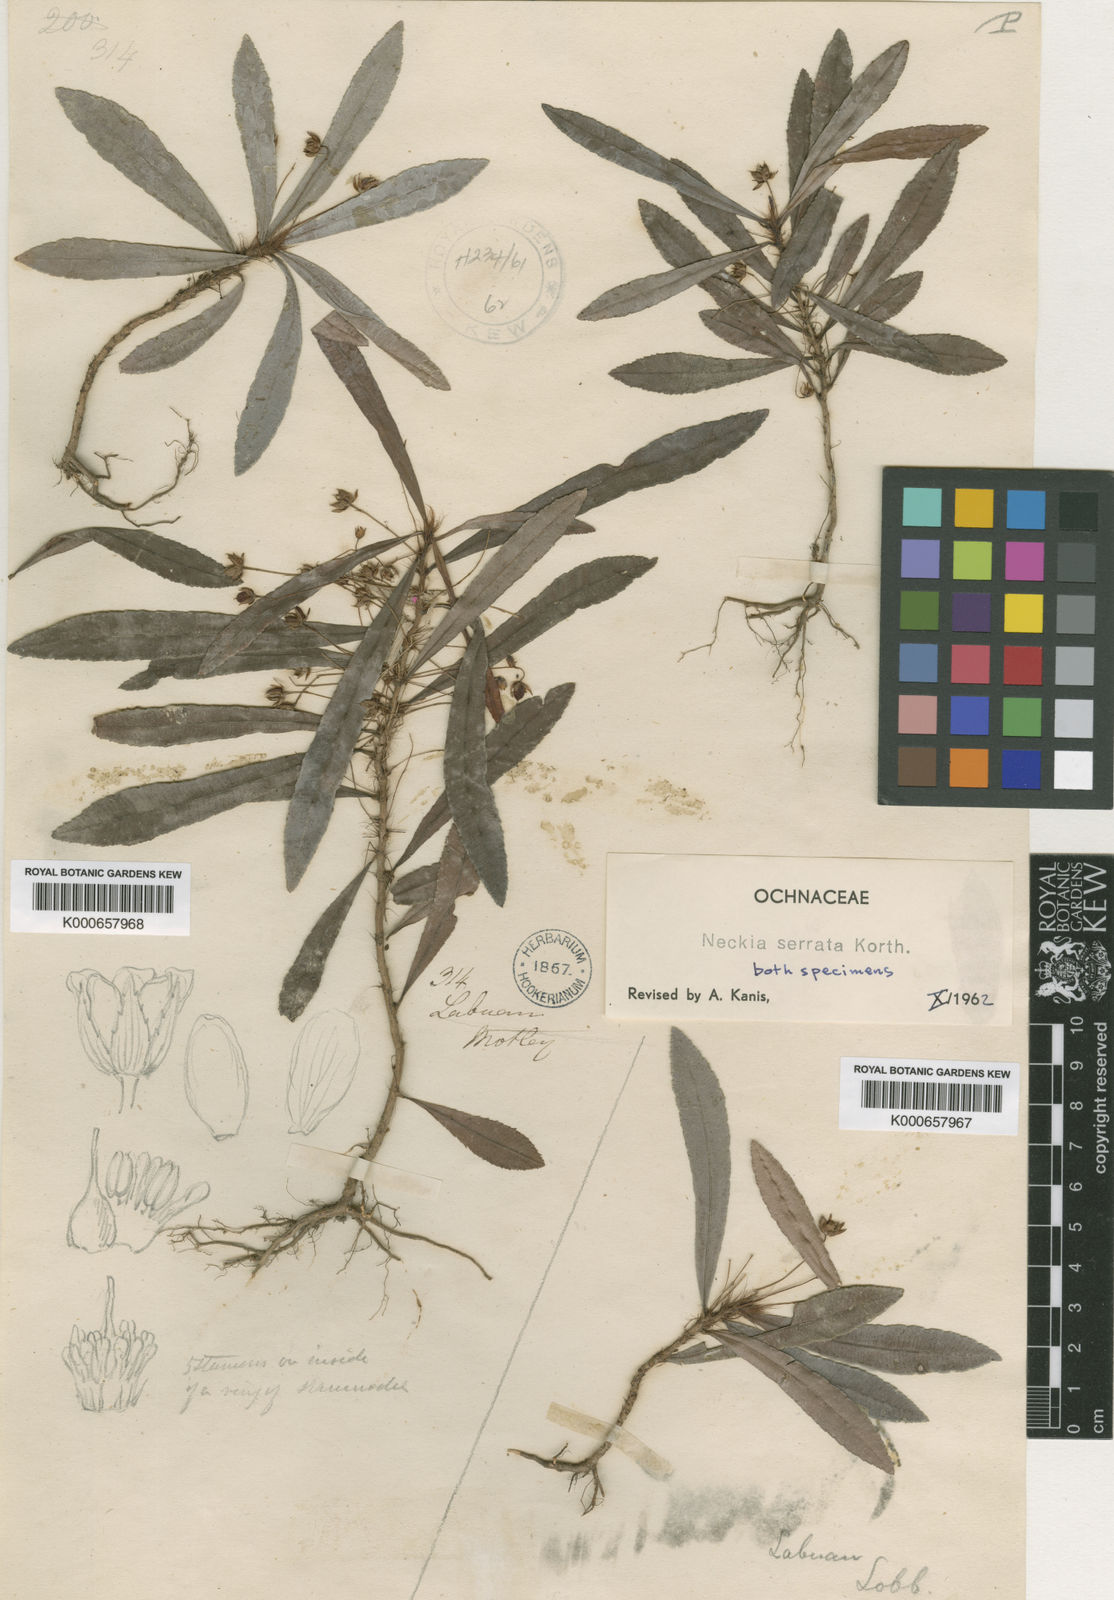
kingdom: Plantae
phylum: Tracheophyta
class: Magnoliopsida
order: Malpighiales
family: Ochnaceae
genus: Neckia
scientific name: Neckia serrata
